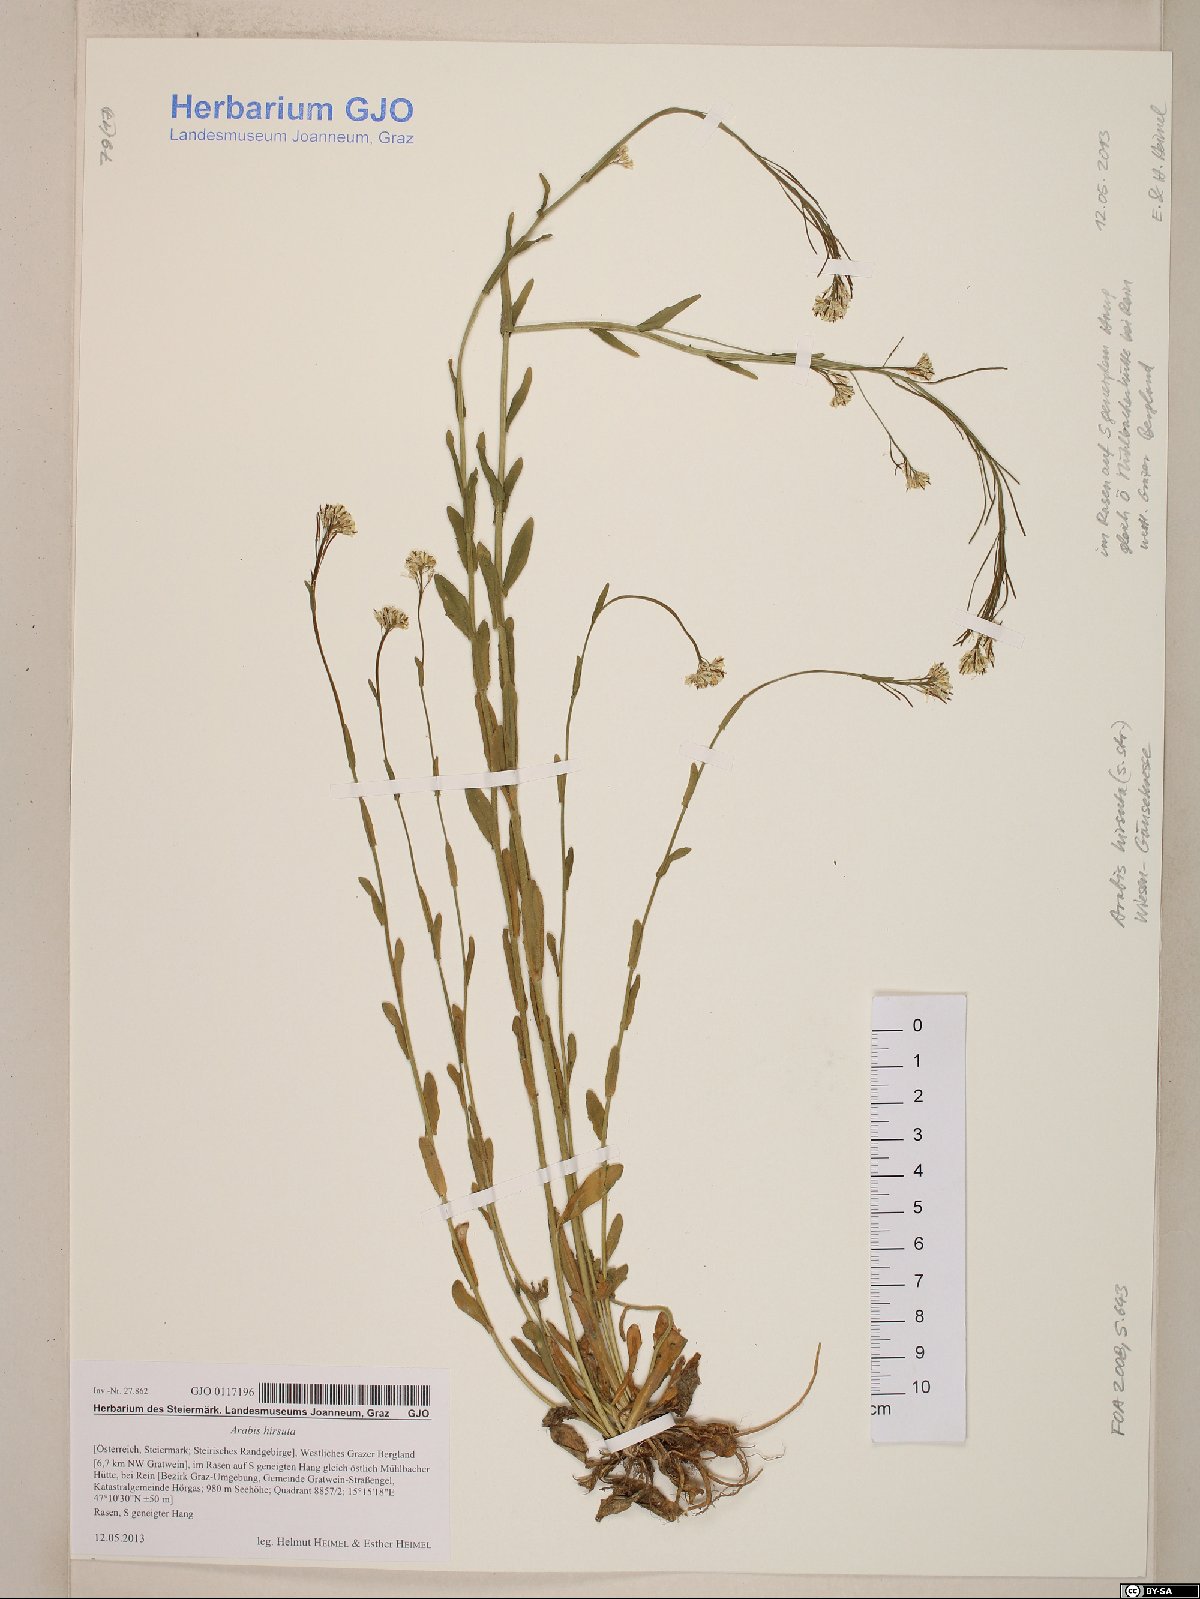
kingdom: Plantae
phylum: Tracheophyta
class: Magnoliopsida
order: Brassicales
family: Brassicaceae
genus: Arabis
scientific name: Arabis hirsuta
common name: Hairy rock-cress
